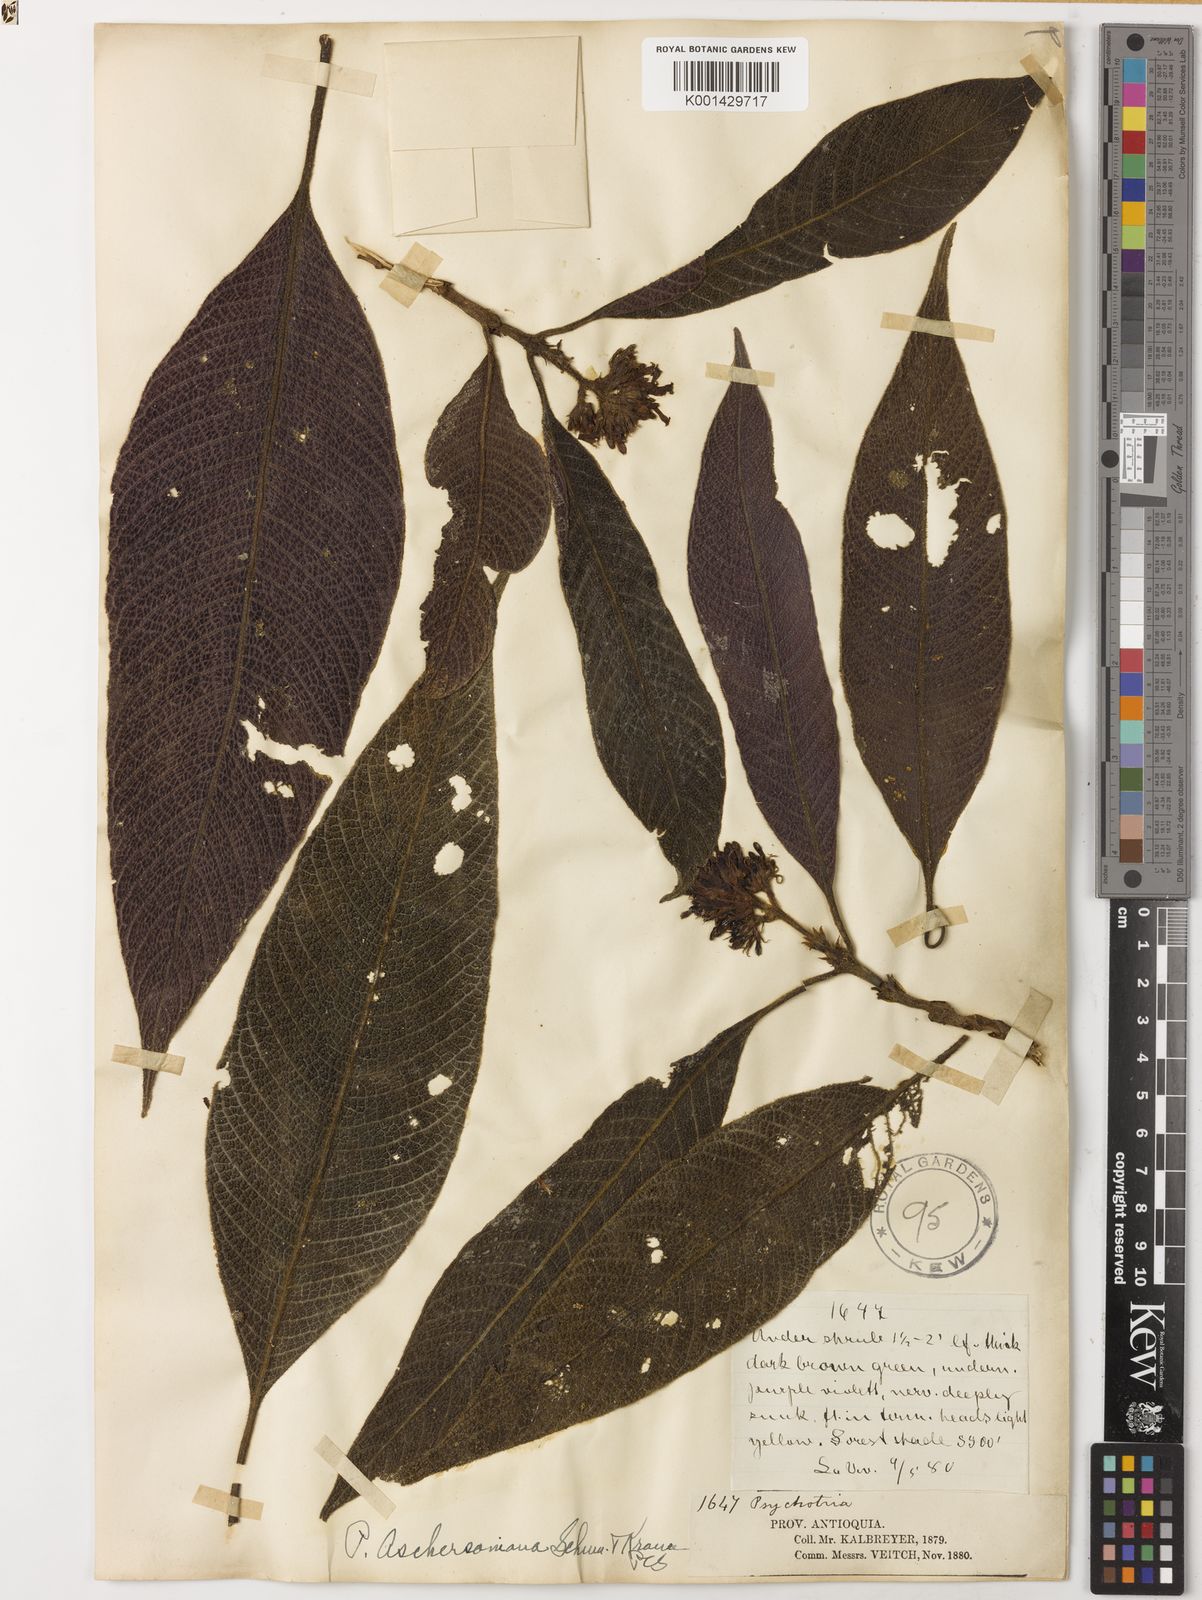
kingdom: Plantae
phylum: Tracheophyta
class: Magnoliopsida
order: Gentianales
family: Rubiaceae
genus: Palicourea
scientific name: Palicourea aschersoniana
